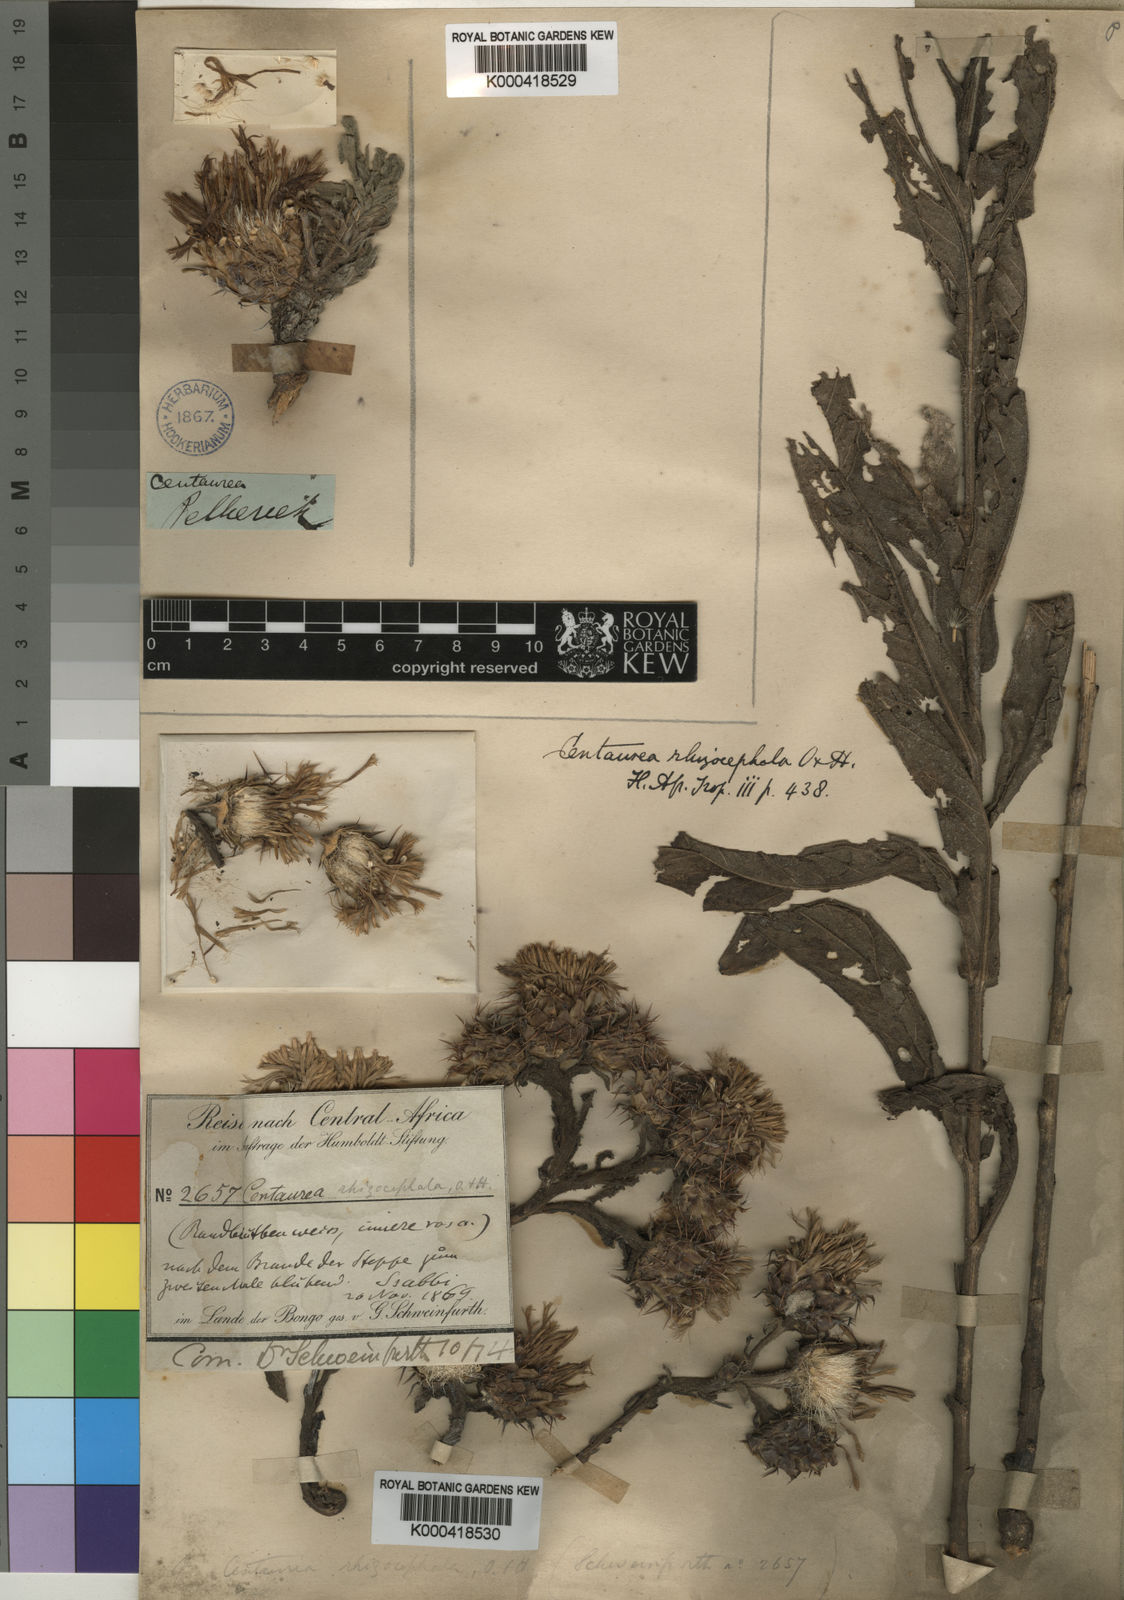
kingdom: Plantae
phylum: Tracheophyta
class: Magnoliopsida
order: Asterales
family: Asteraceae
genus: Centaurea
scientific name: Centaurea praecox
